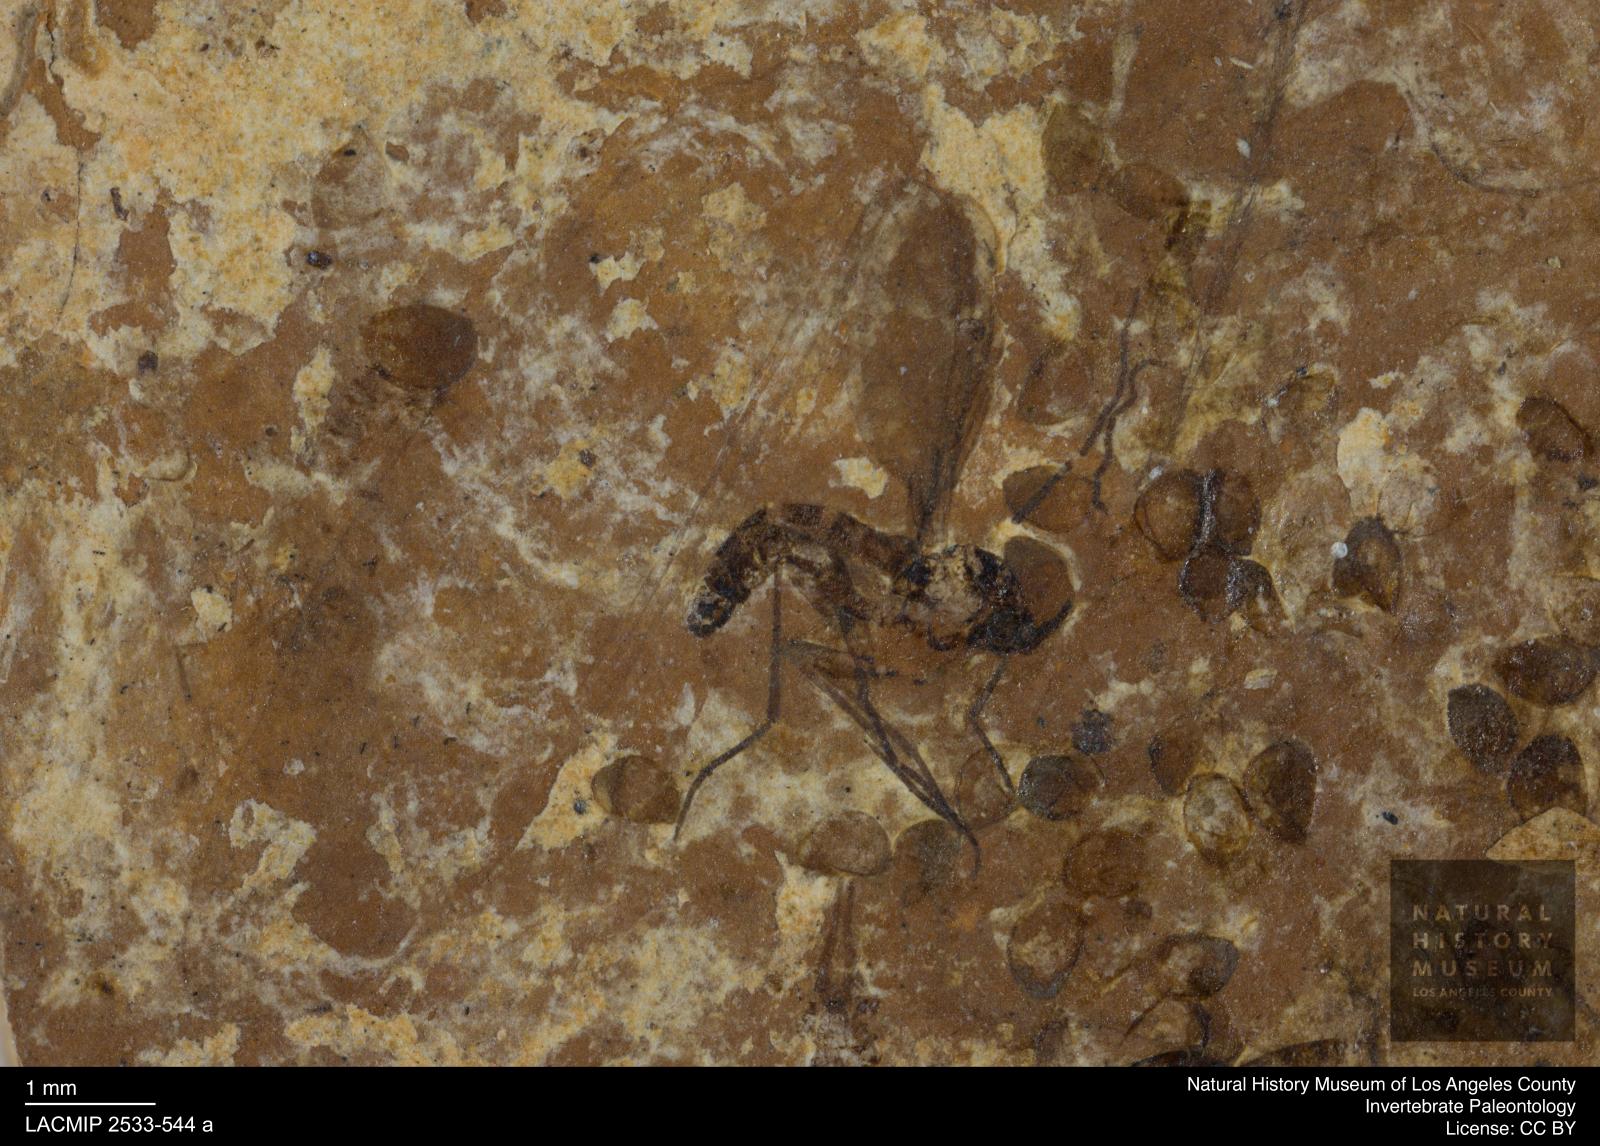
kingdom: Animalia
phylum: Arthropoda
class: Insecta
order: Diptera
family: Sciaridae
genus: Sciara
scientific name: Sciara
